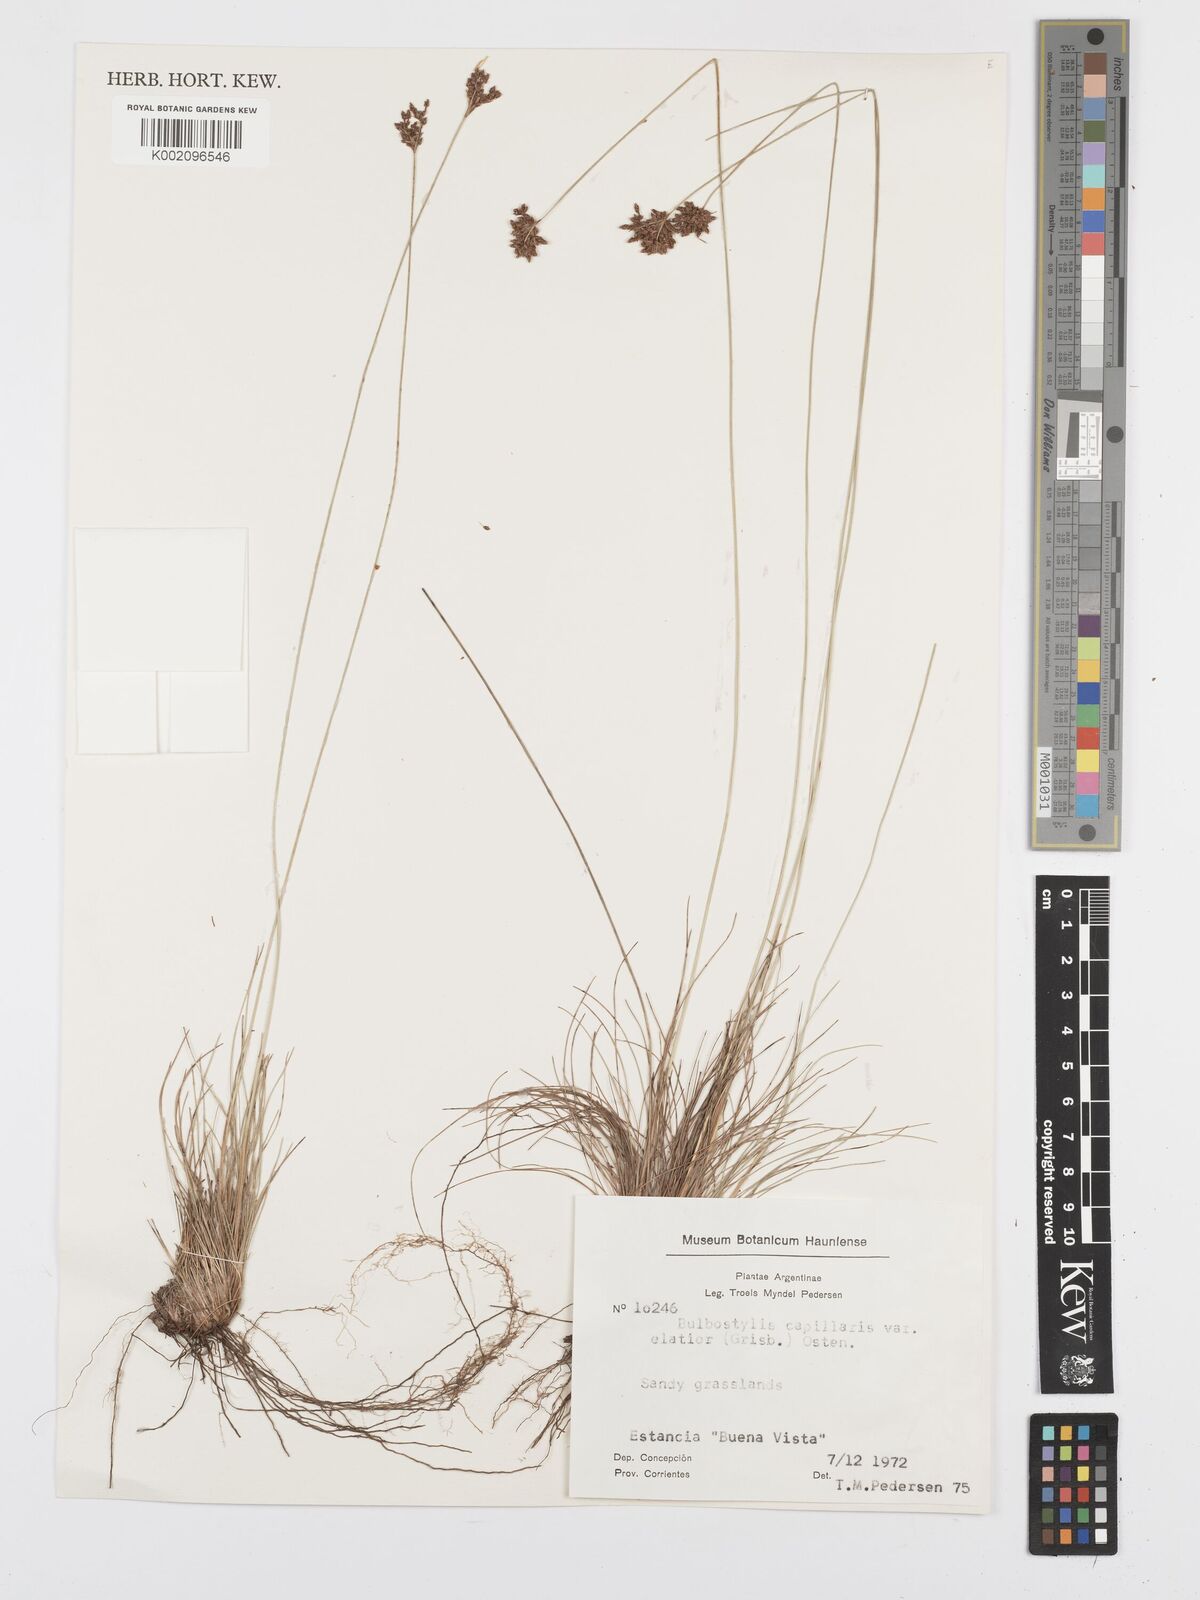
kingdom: Plantae
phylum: Tracheophyta
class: Liliopsida
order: Poales
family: Cyperaceae
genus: Bulbostylis
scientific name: Bulbostylis communis
